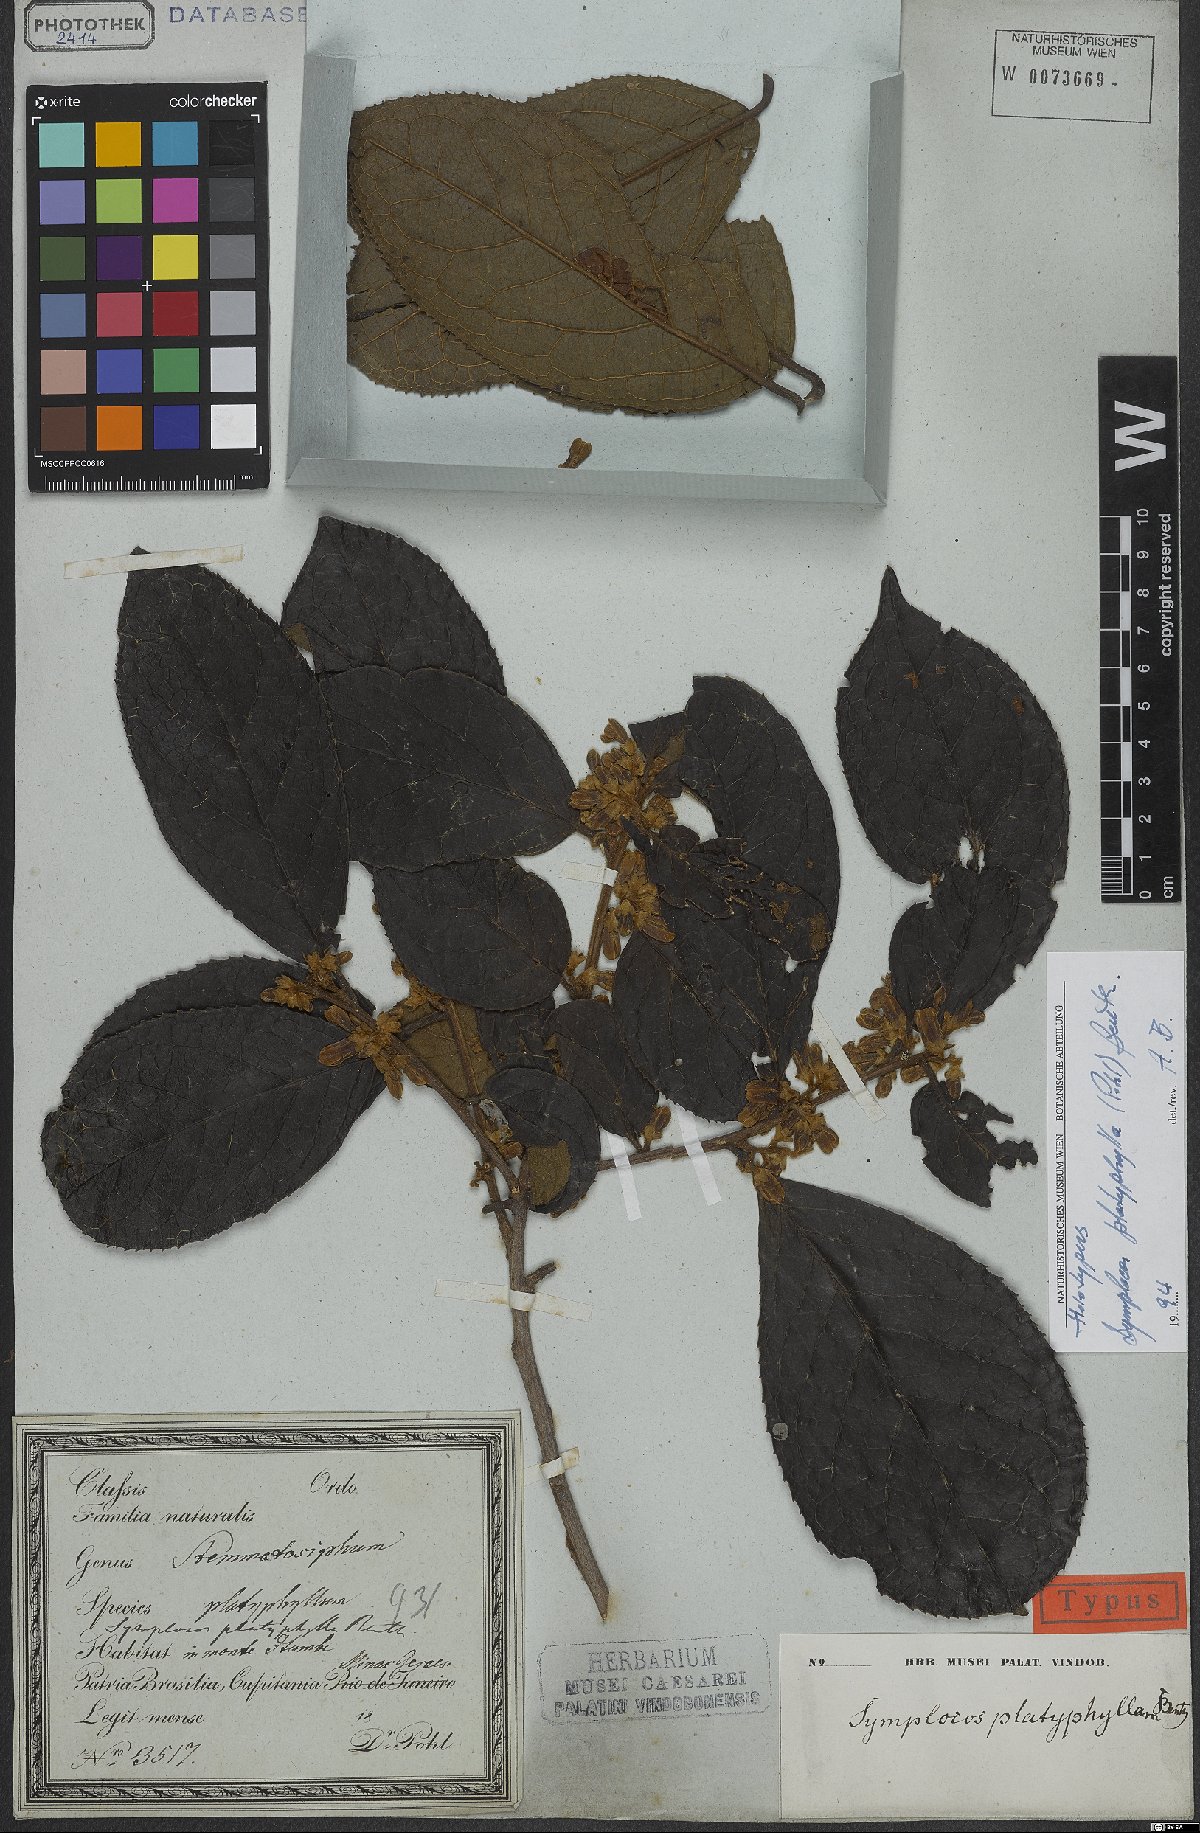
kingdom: Plantae
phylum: Tracheophyta
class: Magnoliopsida
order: Ericales
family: Symplocaceae
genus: Symplocos
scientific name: Symplocos platyphylla
